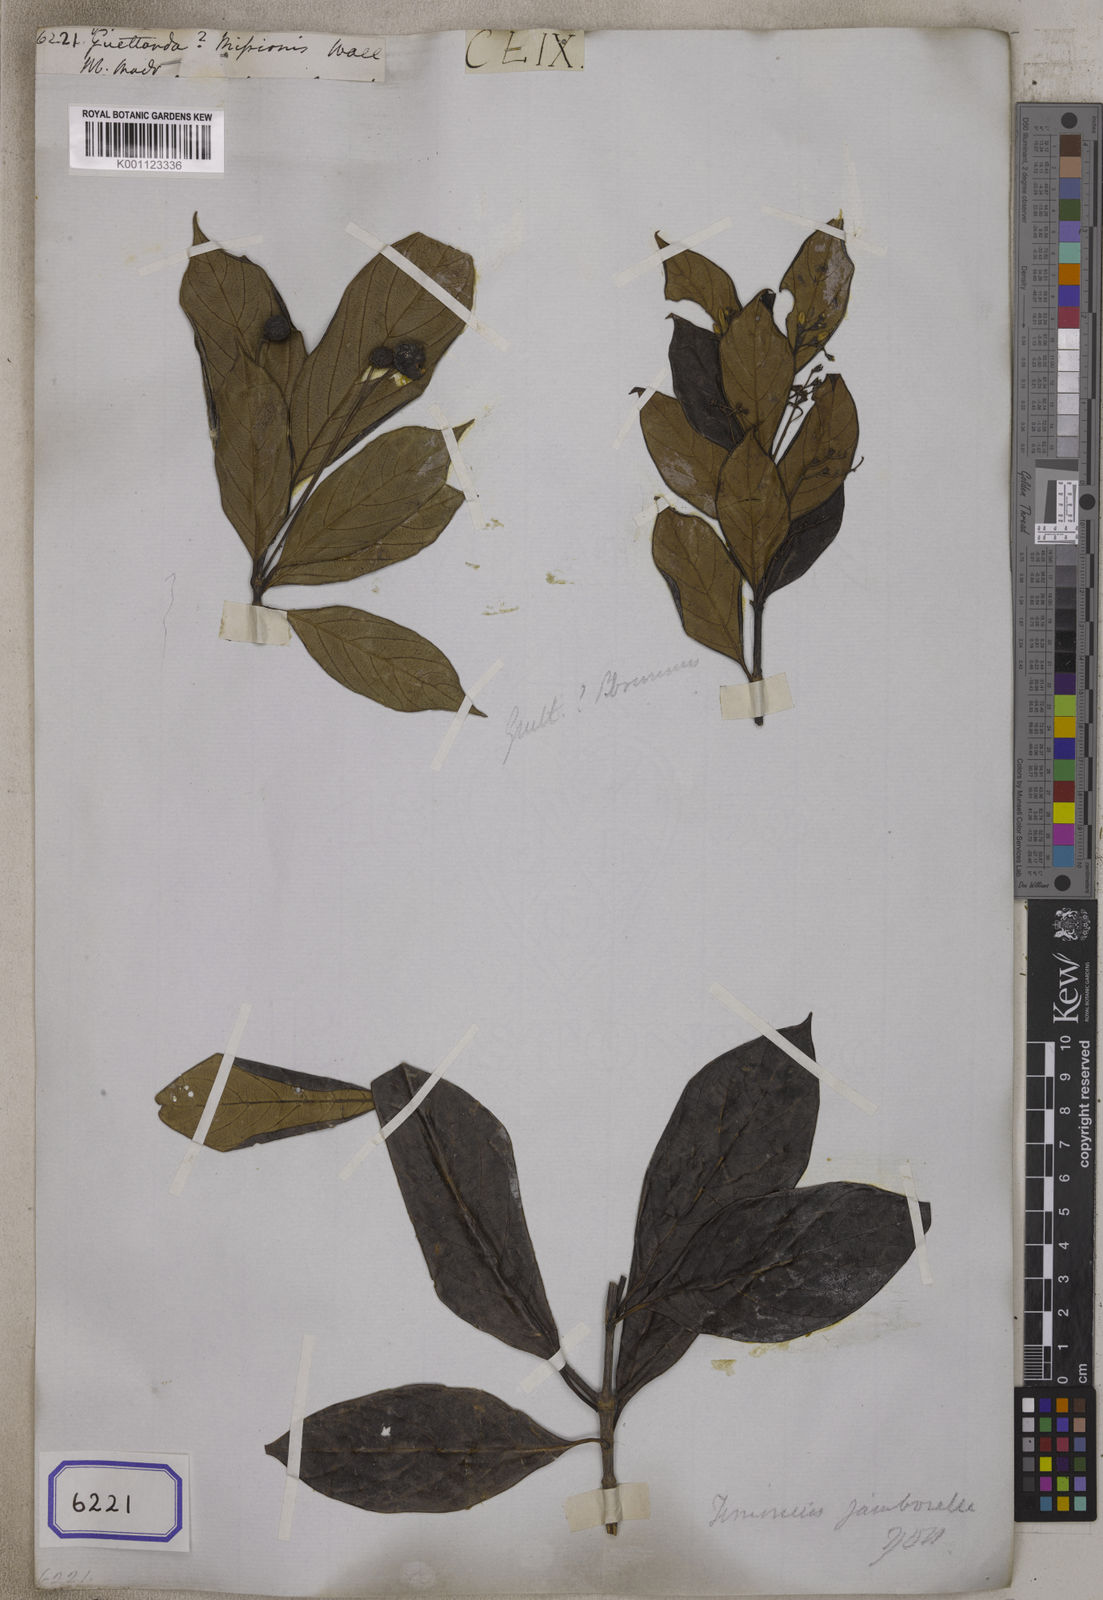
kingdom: Plantae
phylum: Tracheophyta
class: Magnoliopsida
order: Gentianales
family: Rubiaceae
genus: Guettarda
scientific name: Guettarda
